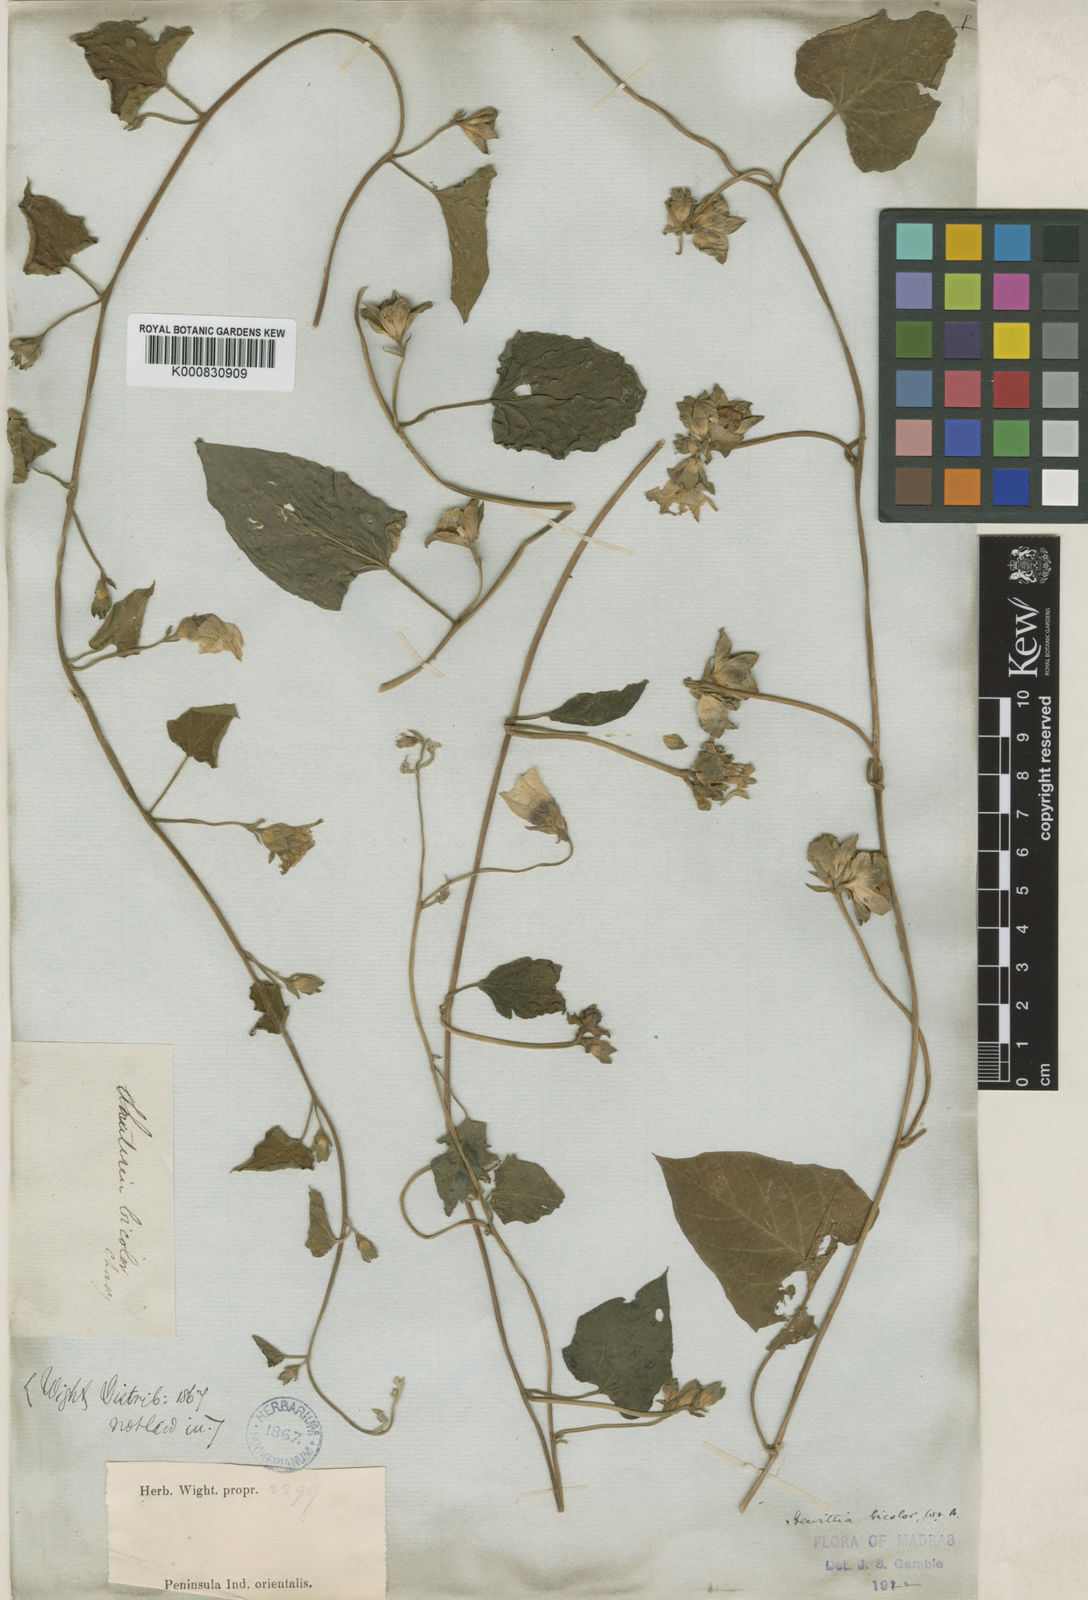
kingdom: Plantae
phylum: Tracheophyta
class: Magnoliopsida
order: Solanales
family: Convolvulaceae
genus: Hewittia
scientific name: Hewittia malabarica
